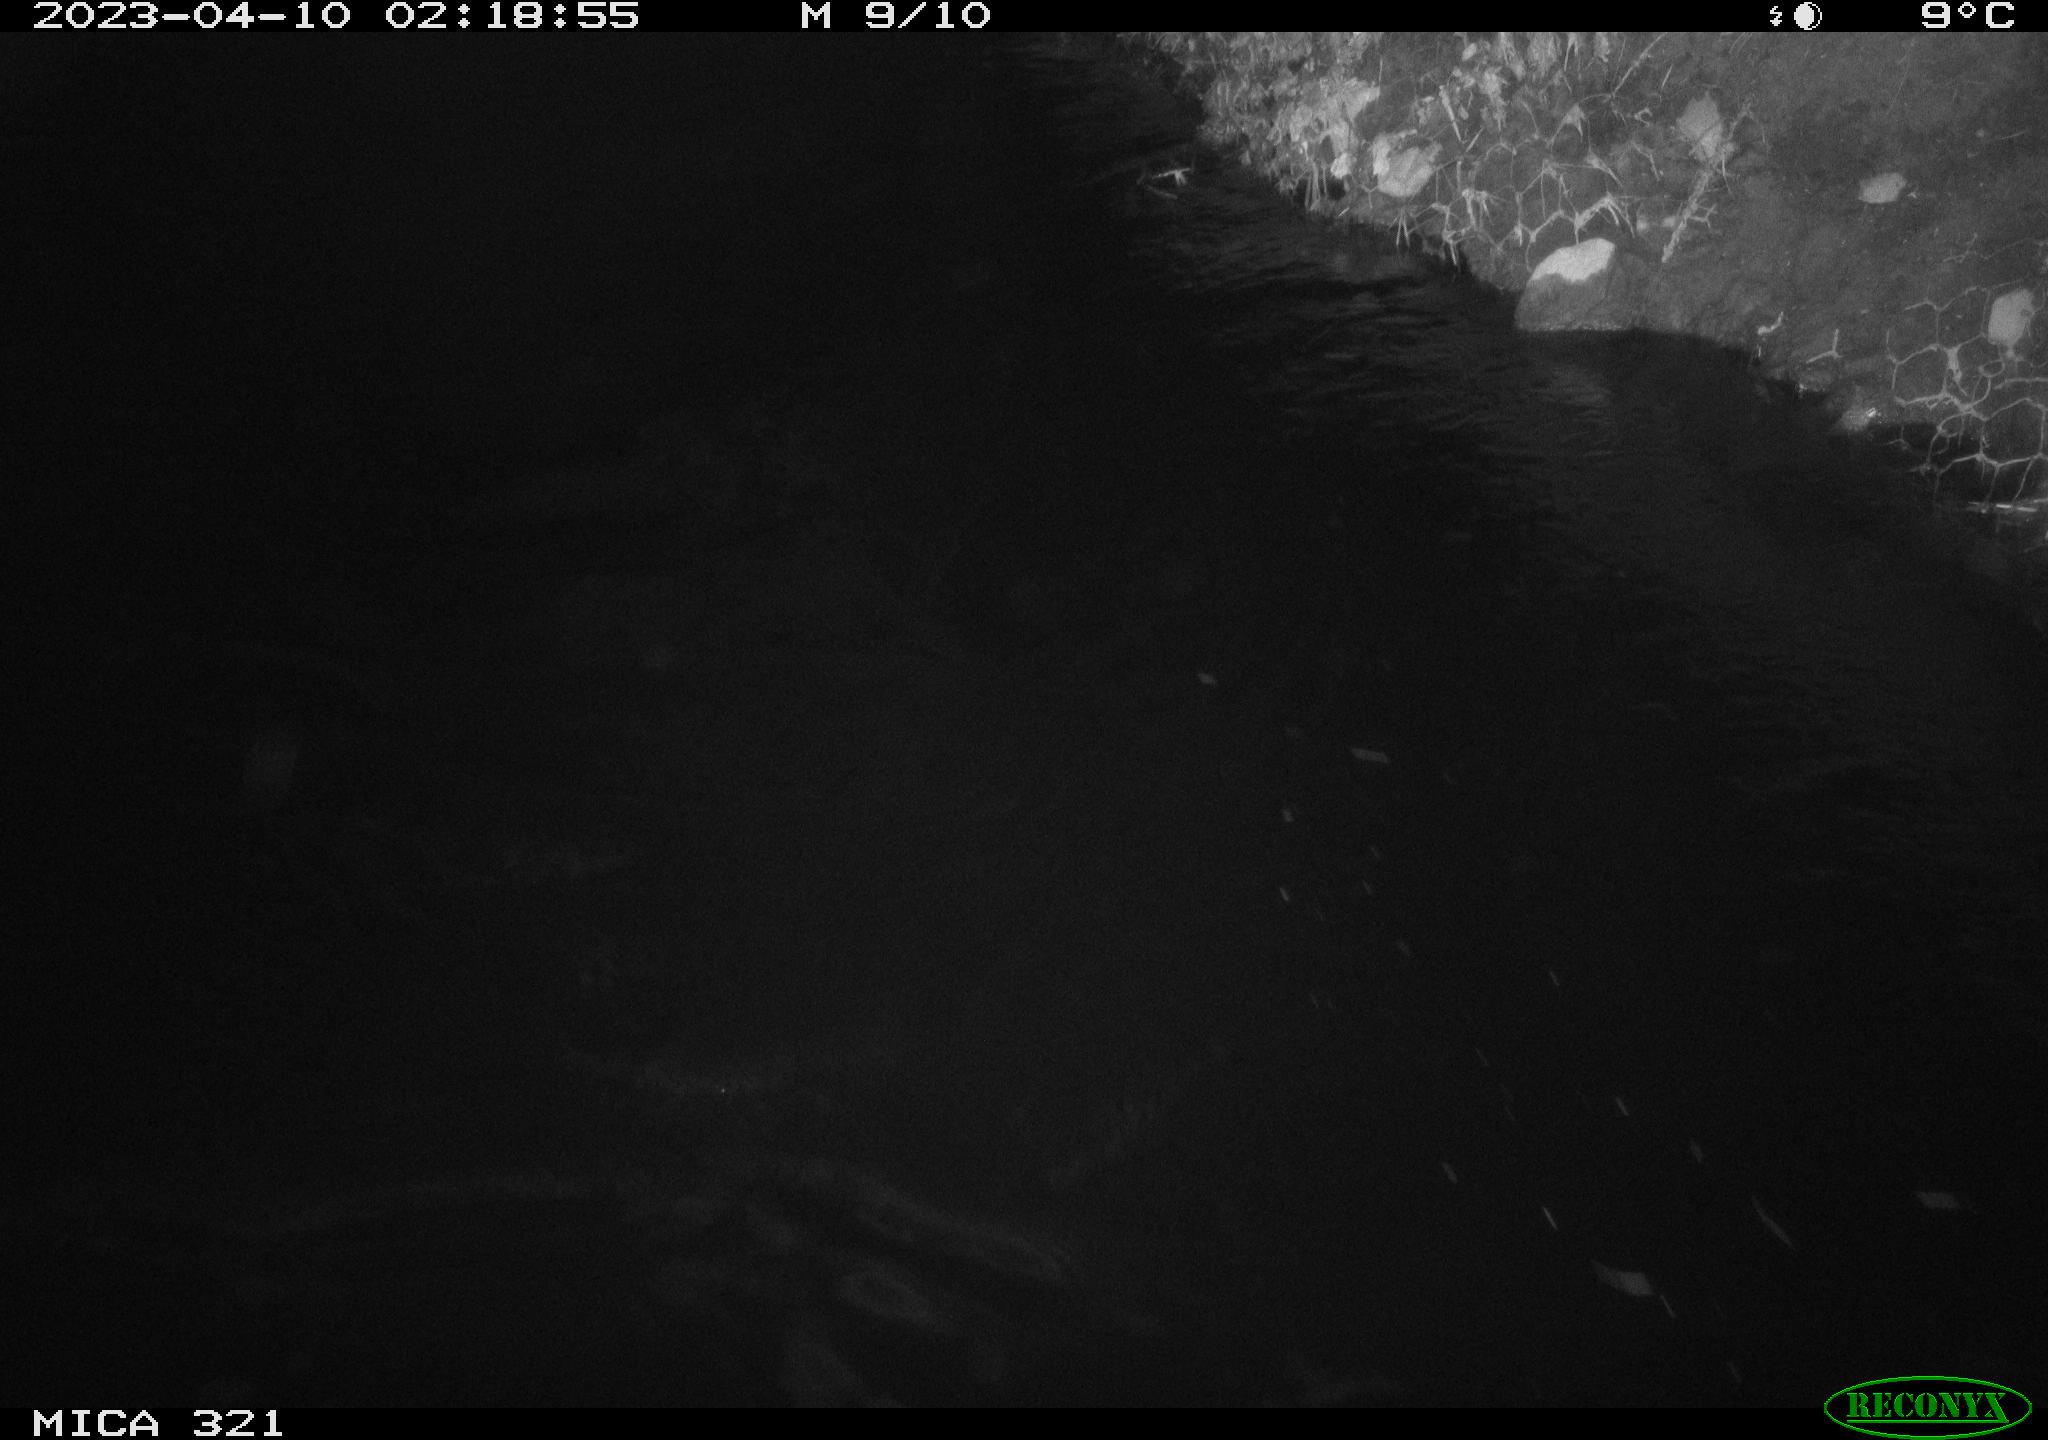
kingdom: Animalia
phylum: Chordata
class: Aves
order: Anseriformes
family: Anatidae
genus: Anas
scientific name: Anas
